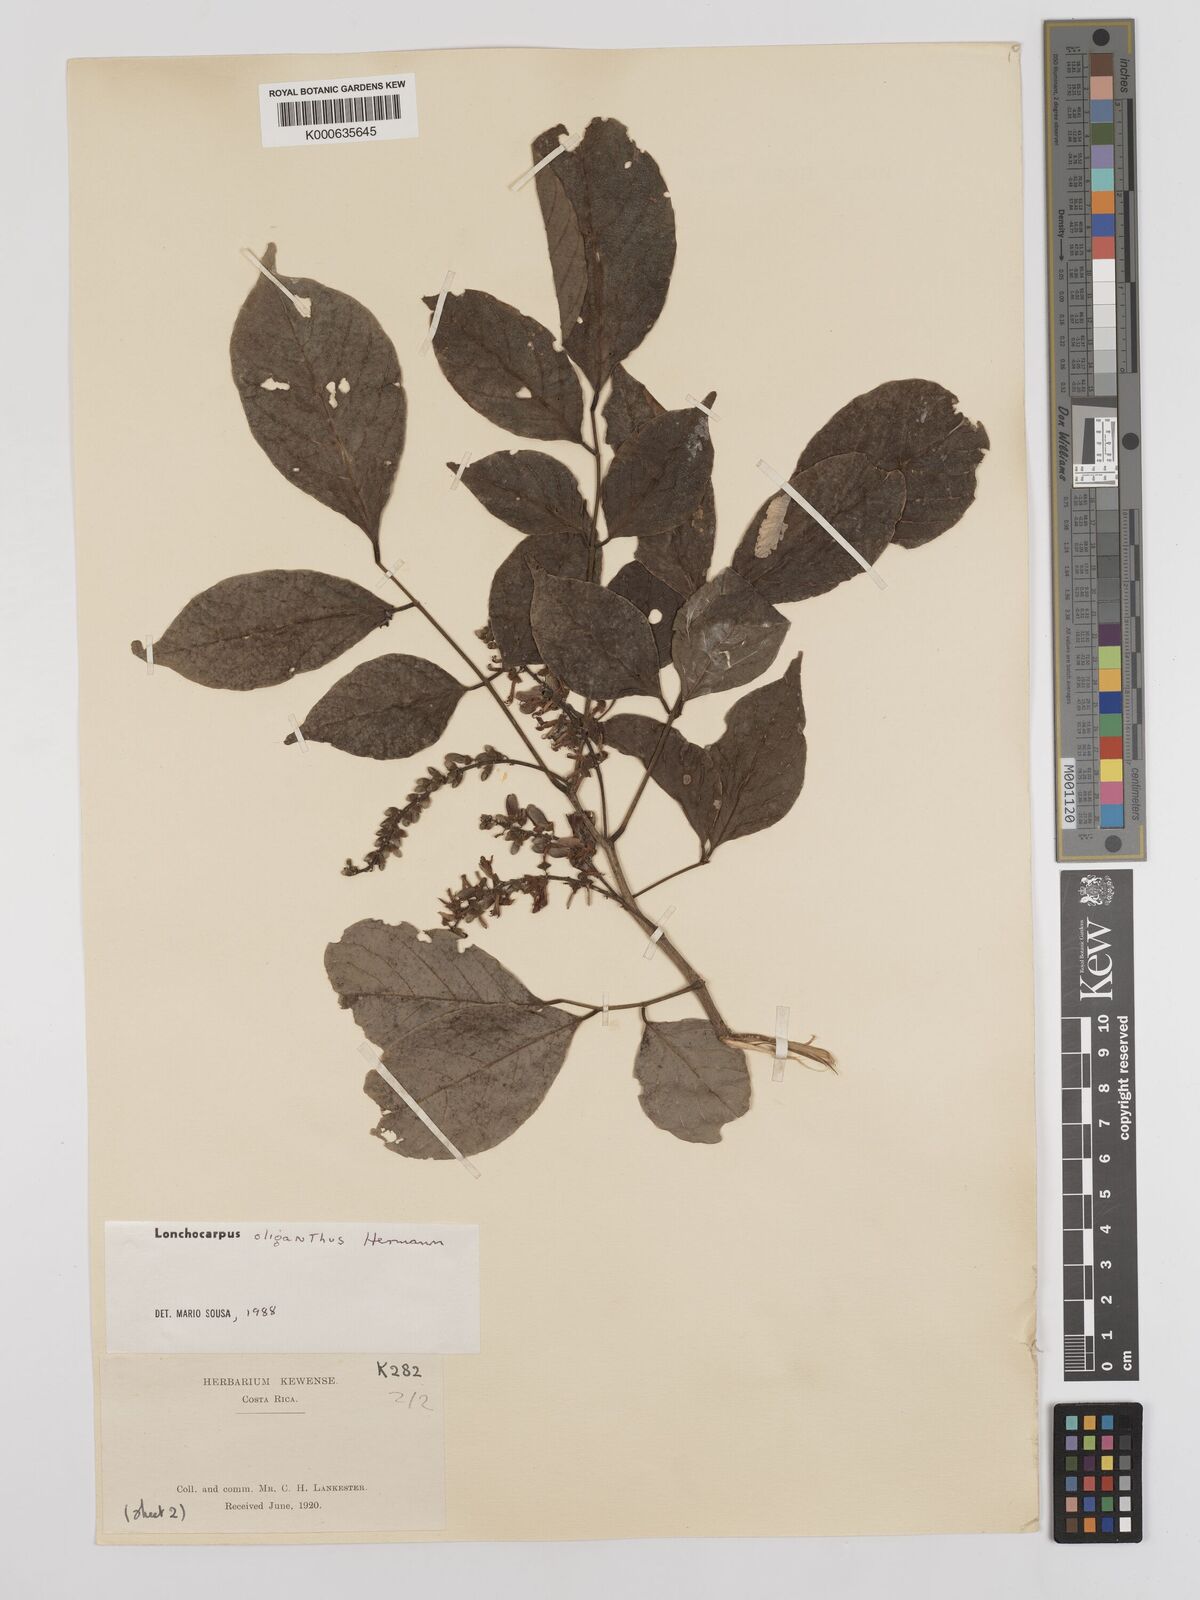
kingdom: Plantae
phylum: Tracheophyta
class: Magnoliopsida
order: Fabales
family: Fabaceae
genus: Lonchocarpus
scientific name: Lonchocarpus oliganthus
